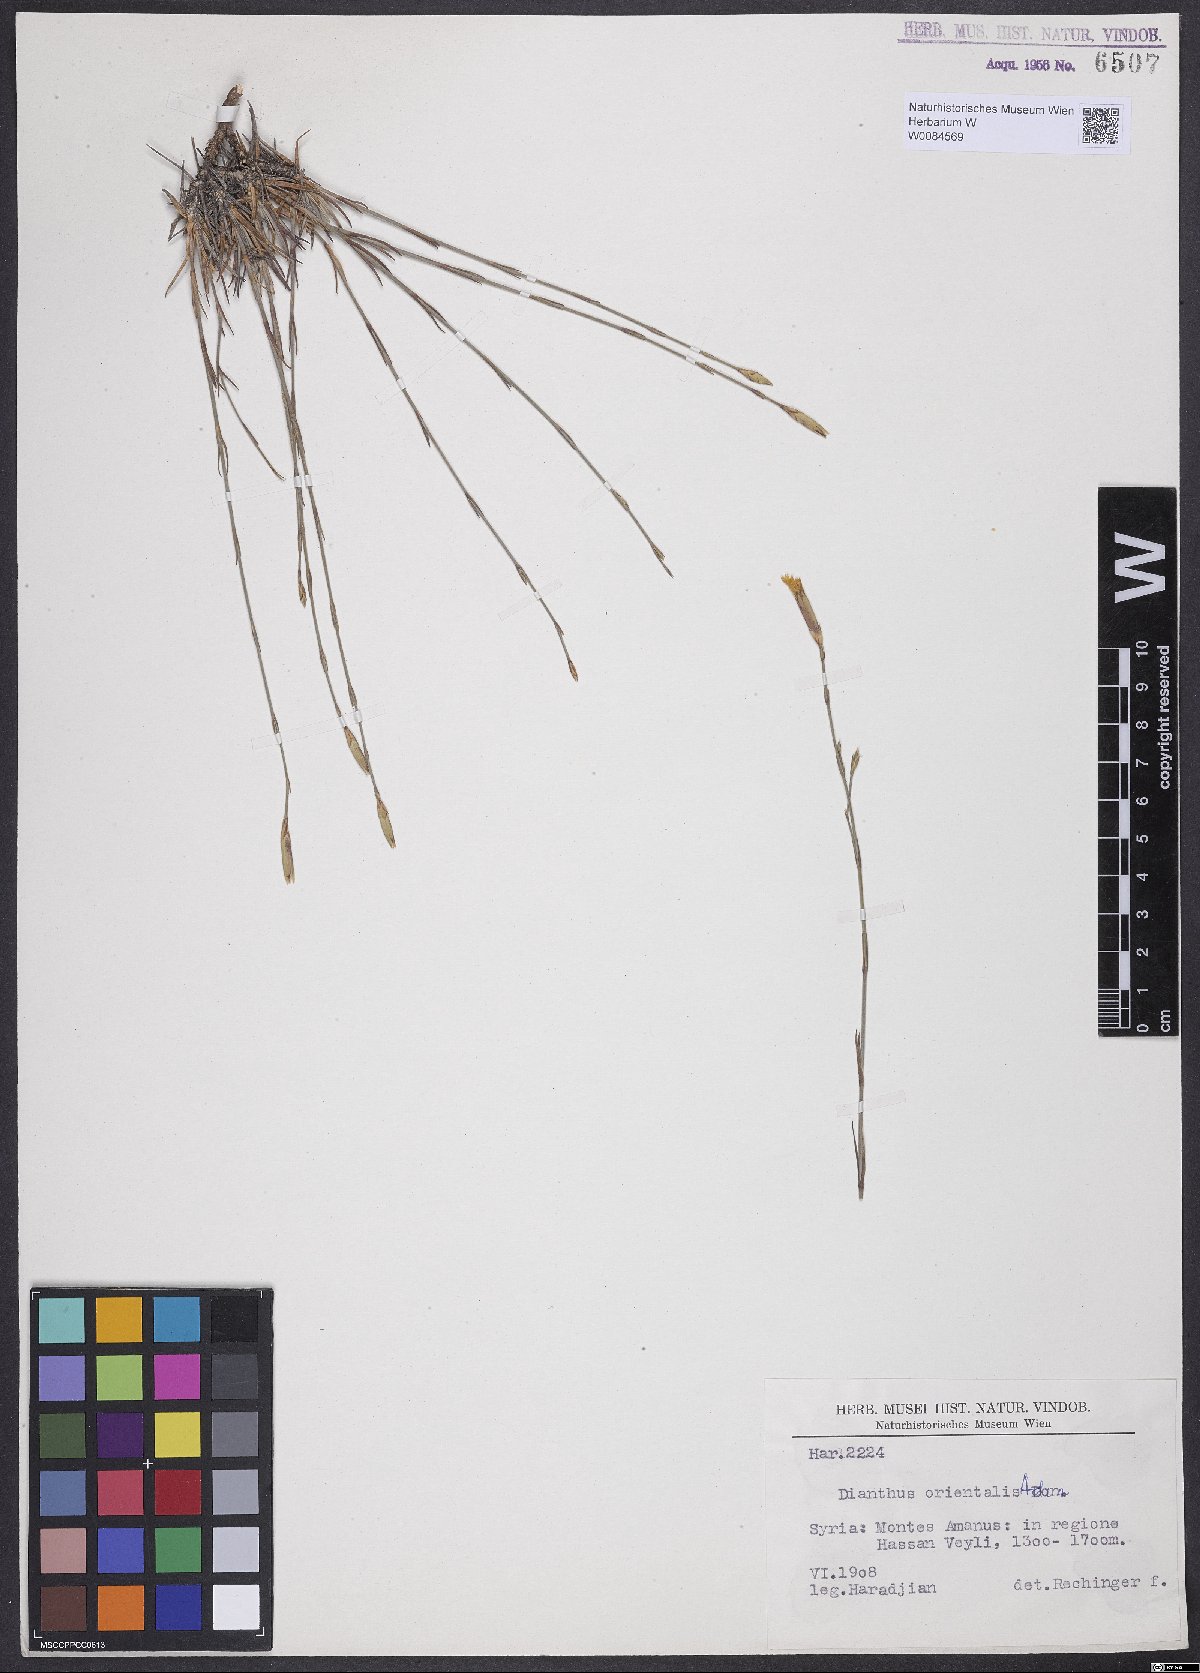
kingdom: Plantae
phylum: Tracheophyta
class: Magnoliopsida
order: Caryophyllales
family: Caryophyllaceae
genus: Dianthus
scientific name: Dianthus orientalis
